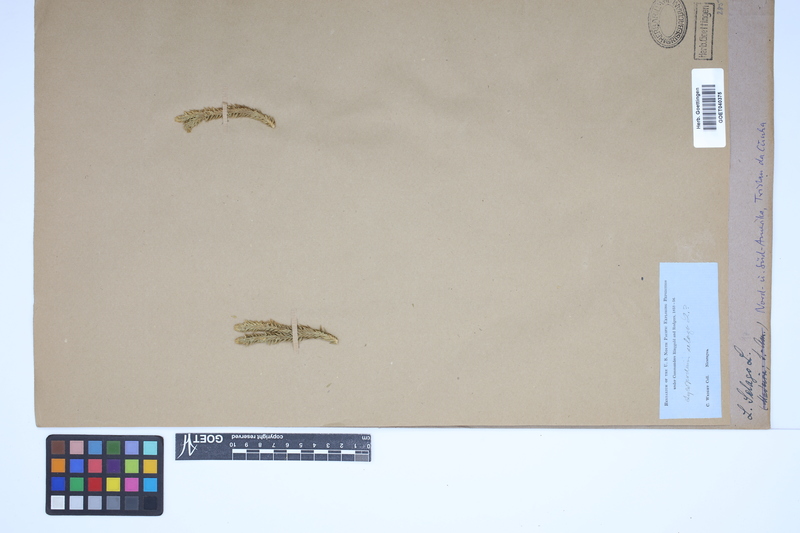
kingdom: Plantae
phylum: Tracheophyta
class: Lycopodiopsida
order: Lycopodiales
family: Lycopodiaceae
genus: Huperzia
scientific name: Huperzia selago
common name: Northern firmoss
